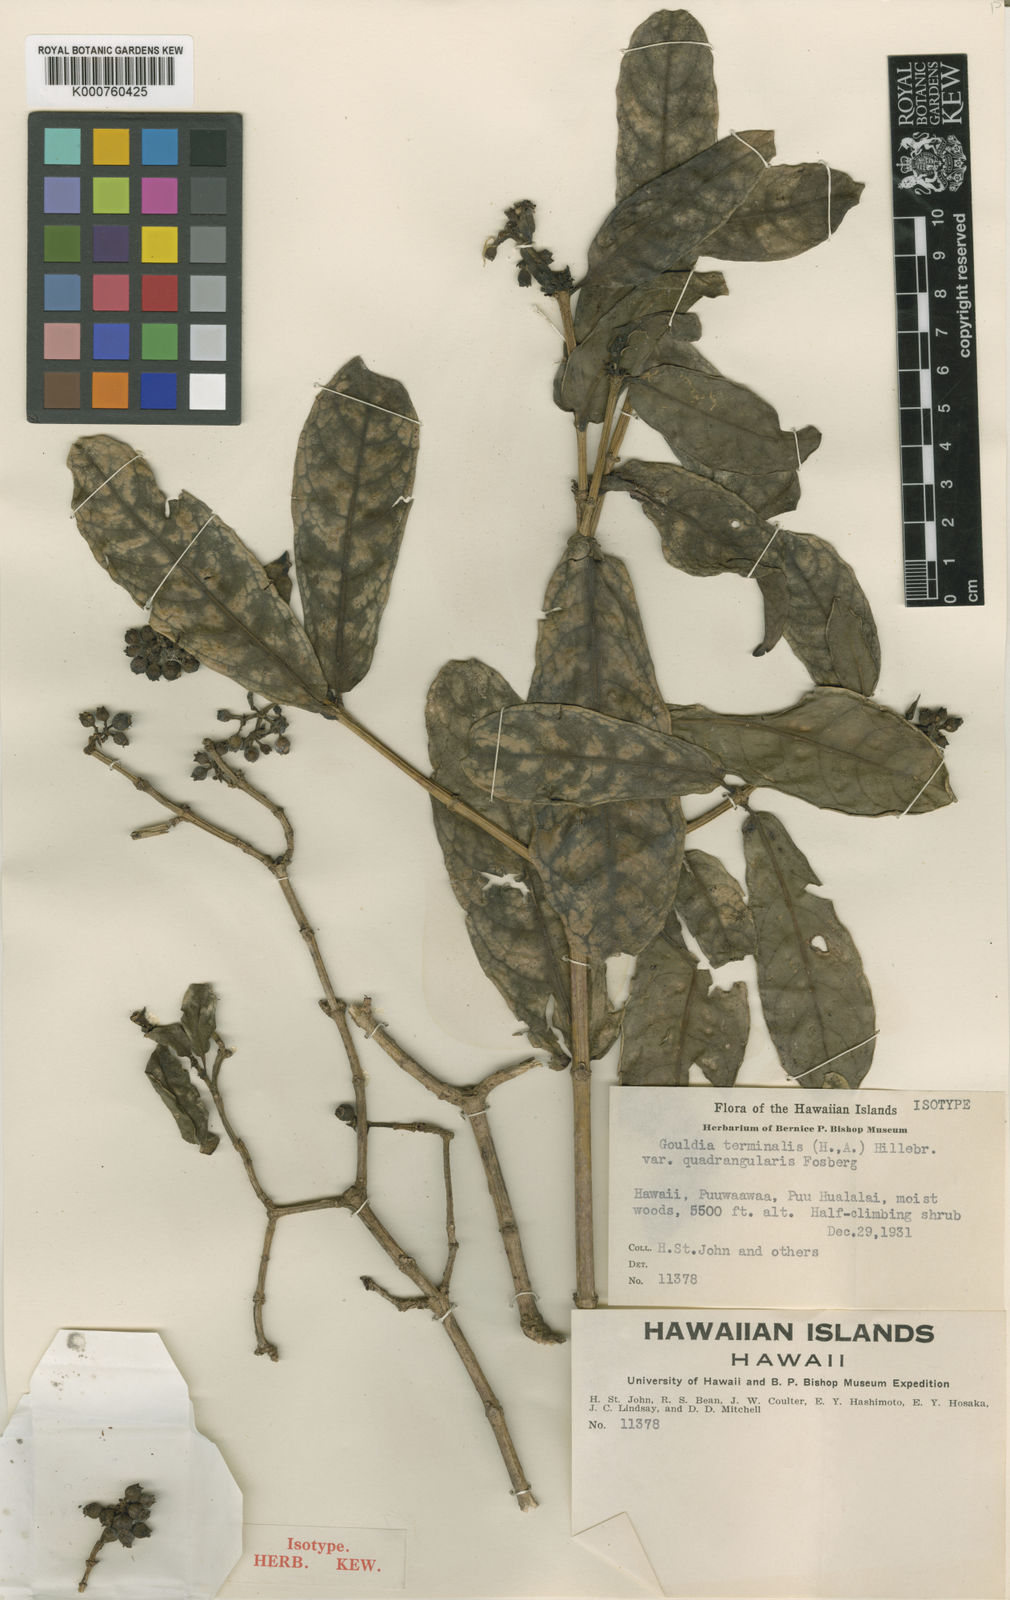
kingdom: Plantae
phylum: Tracheophyta
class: Magnoliopsida
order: Gentianales
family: Rubiaceae
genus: Kadua
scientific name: Kadua affinis
